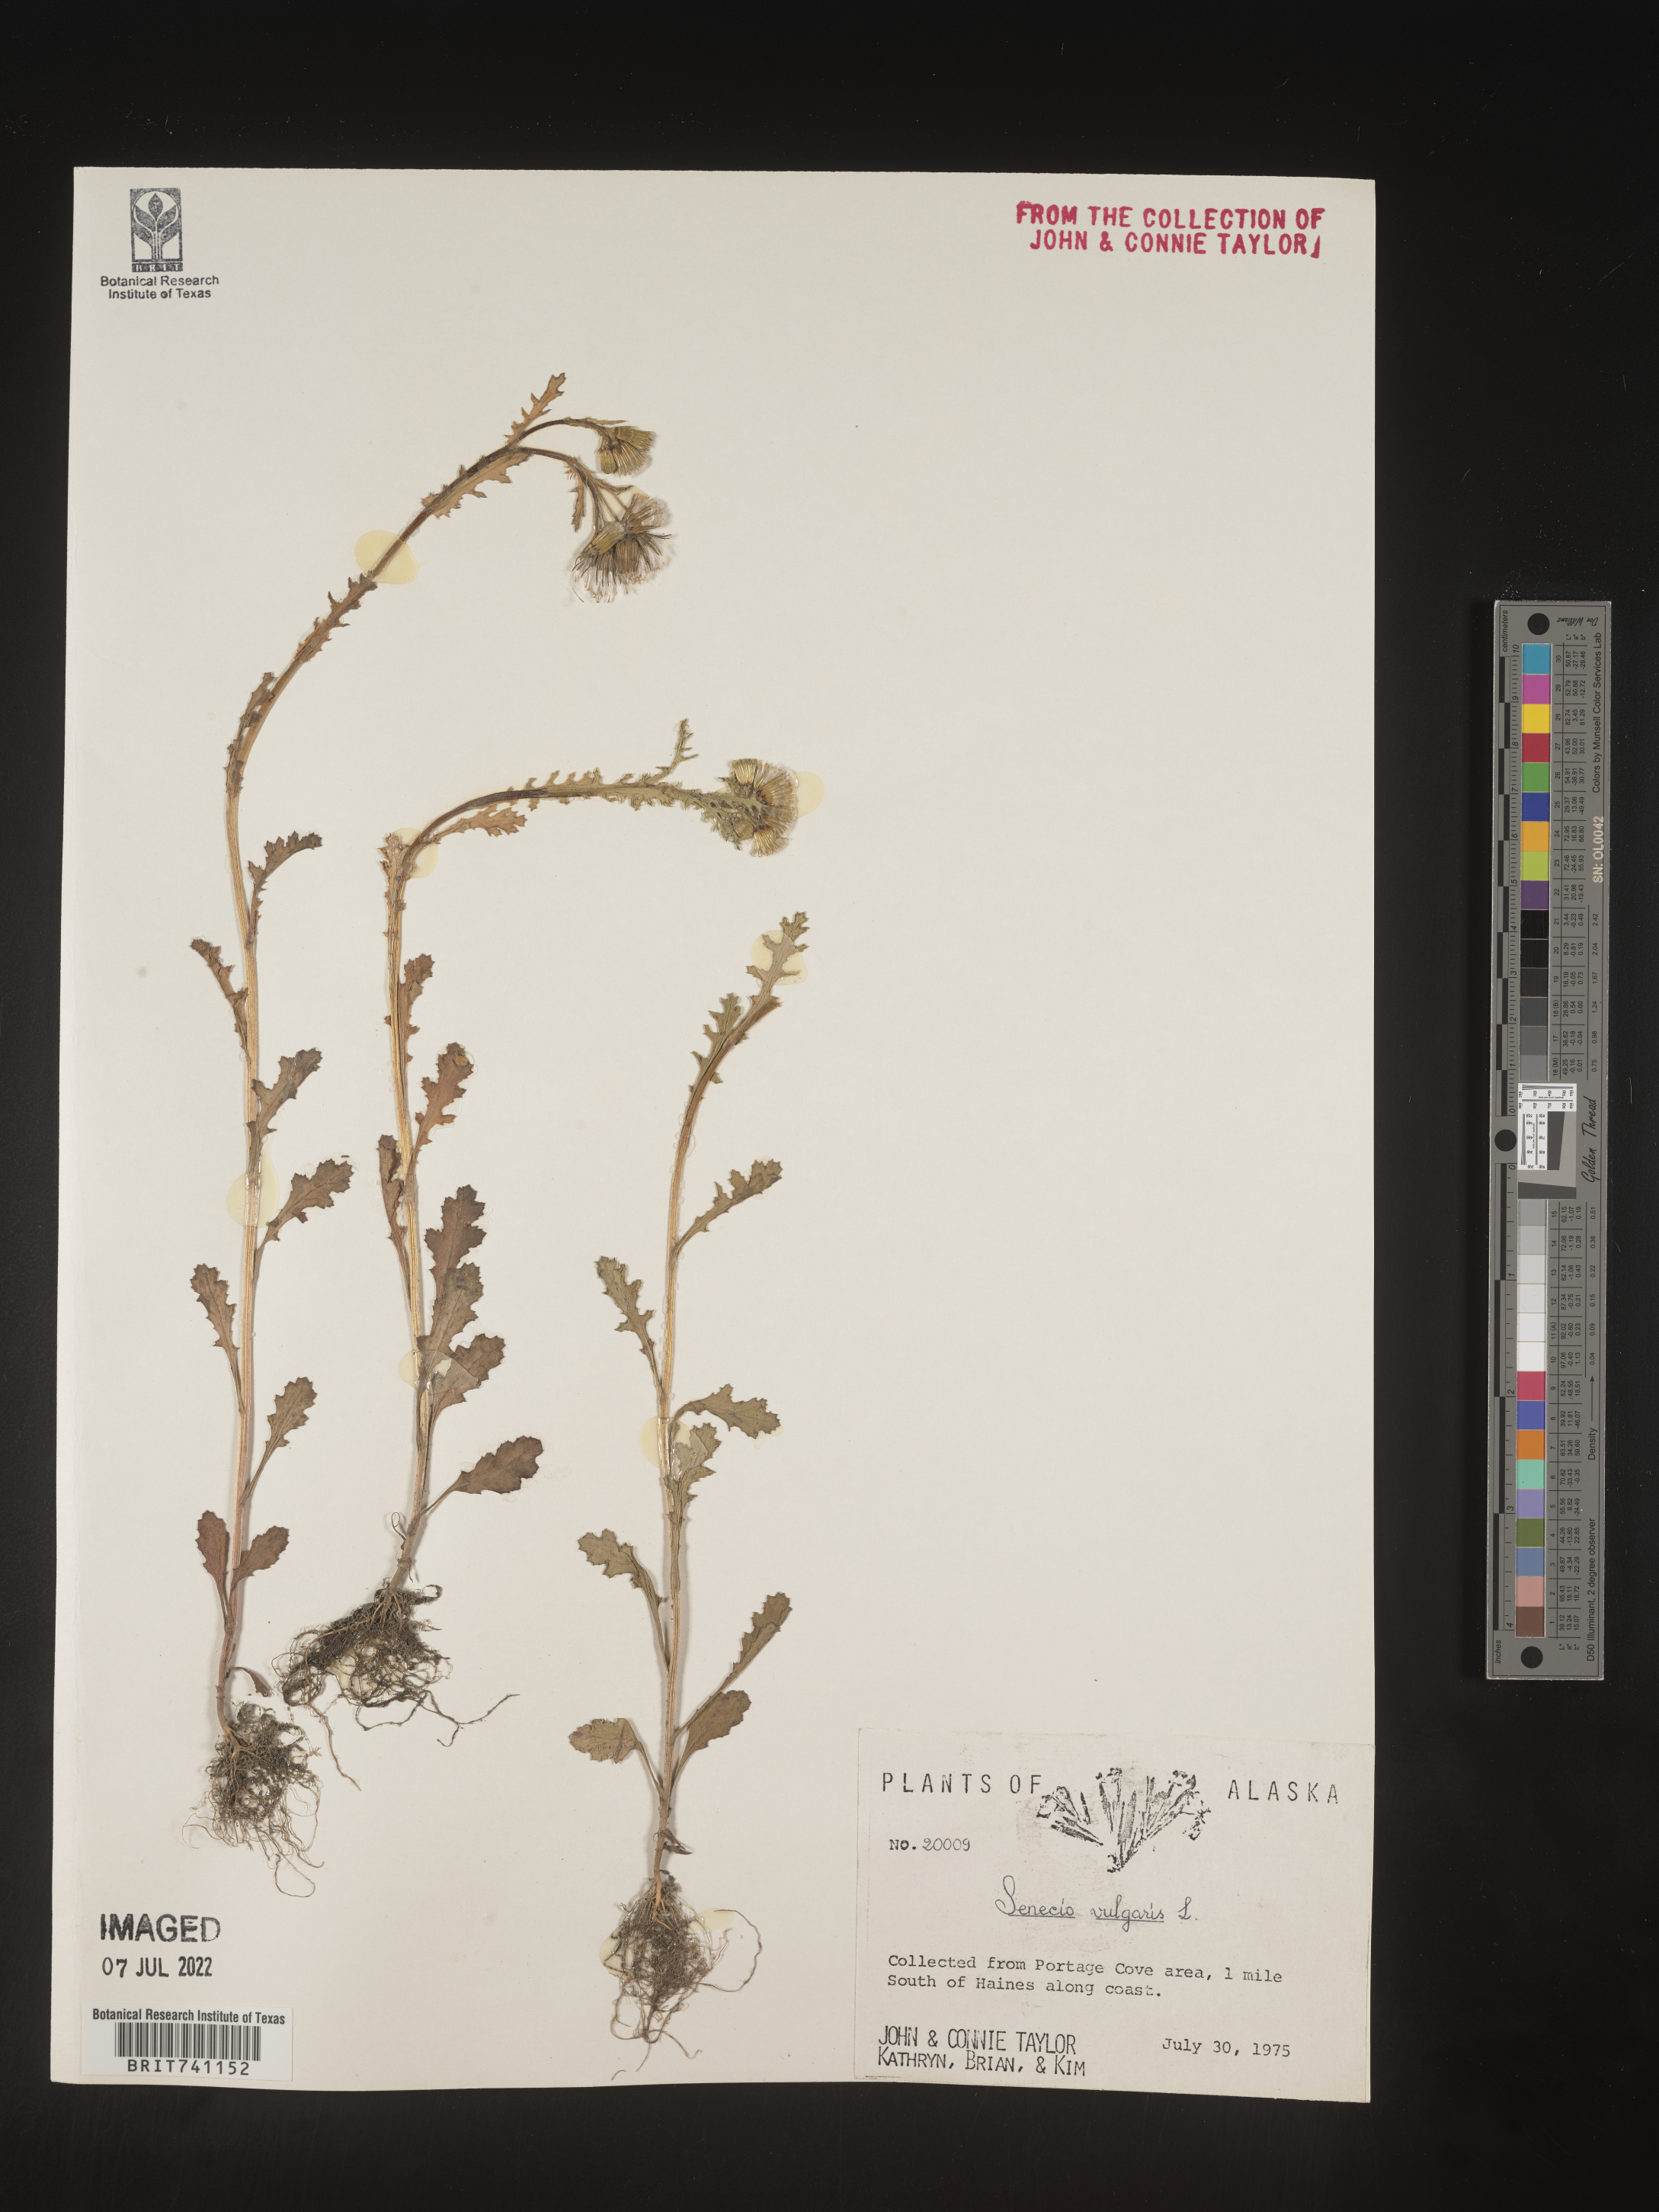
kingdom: Plantae
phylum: Tracheophyta
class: Magnoliopsida
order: Asterales
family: Asteraceae
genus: Senecio
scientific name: Senecio vulgaris
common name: Old-man-in-the-spring
